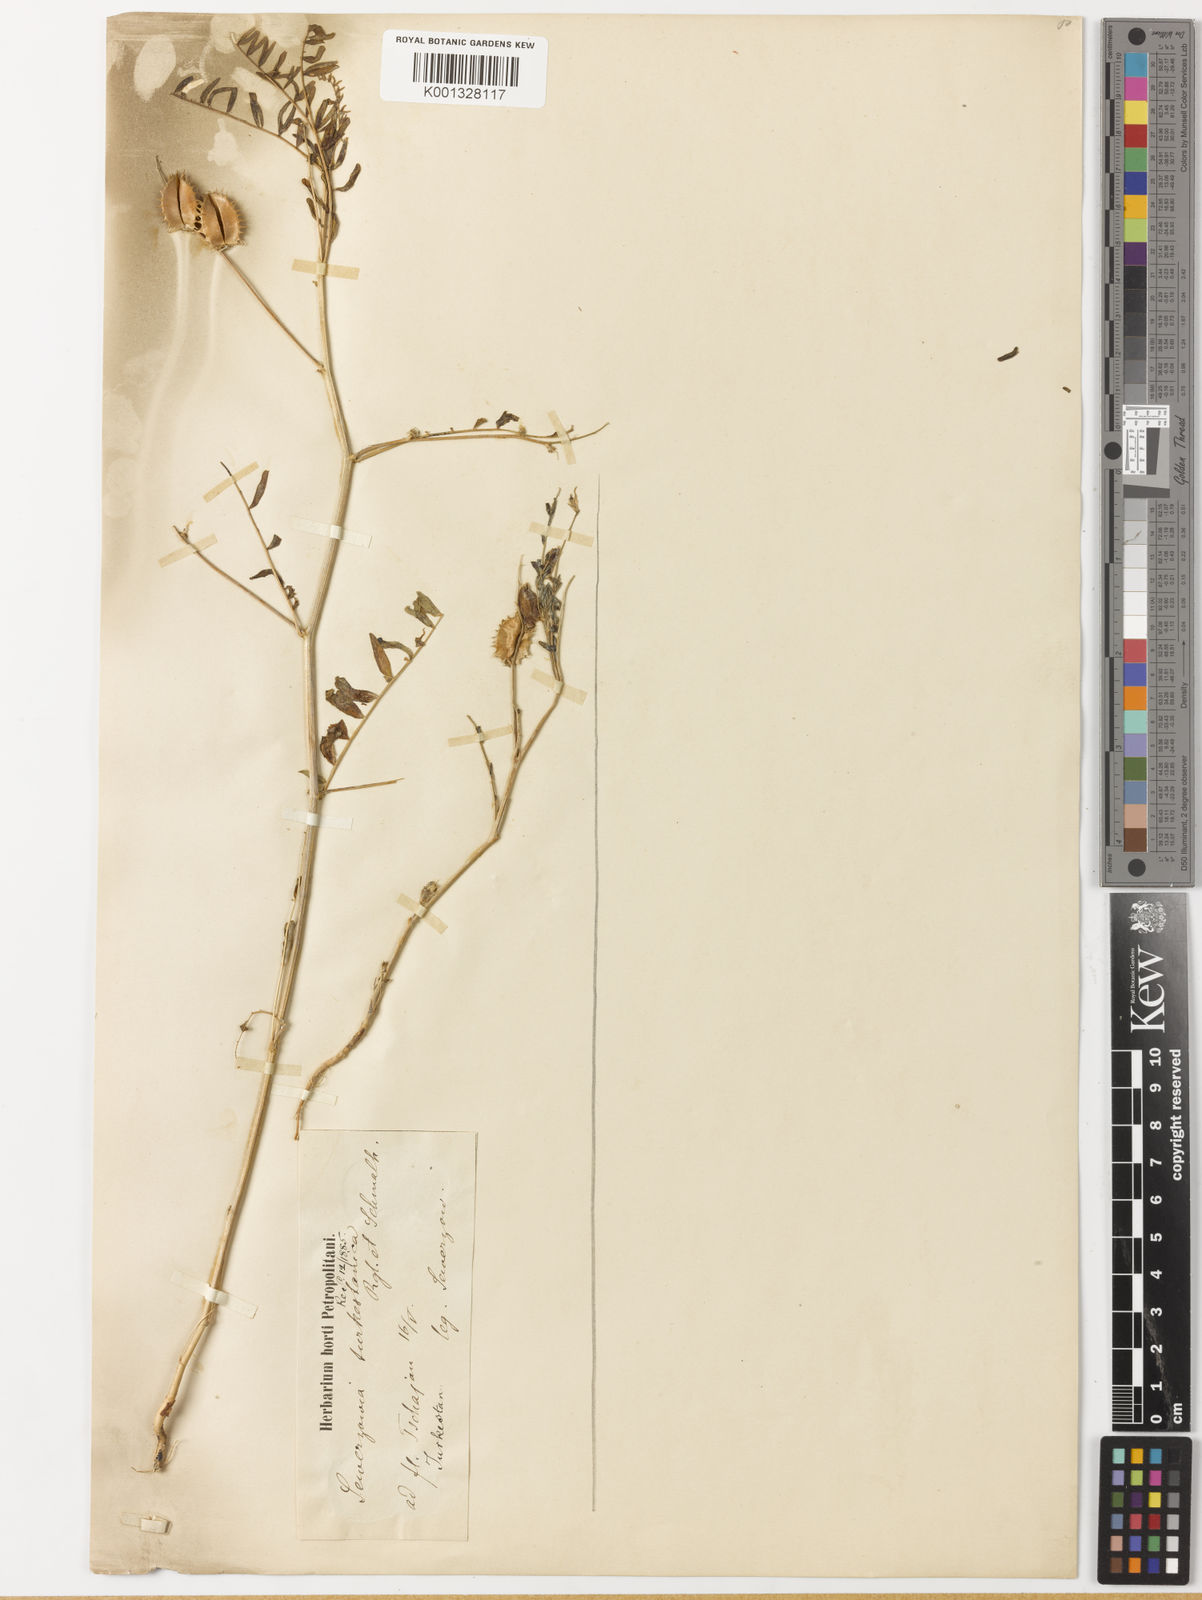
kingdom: Plantae
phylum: Tracheophyta
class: Magnoliopsida
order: Fabales
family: Fabaceae
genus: Astragalus
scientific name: Astragalus schmalhausenii
